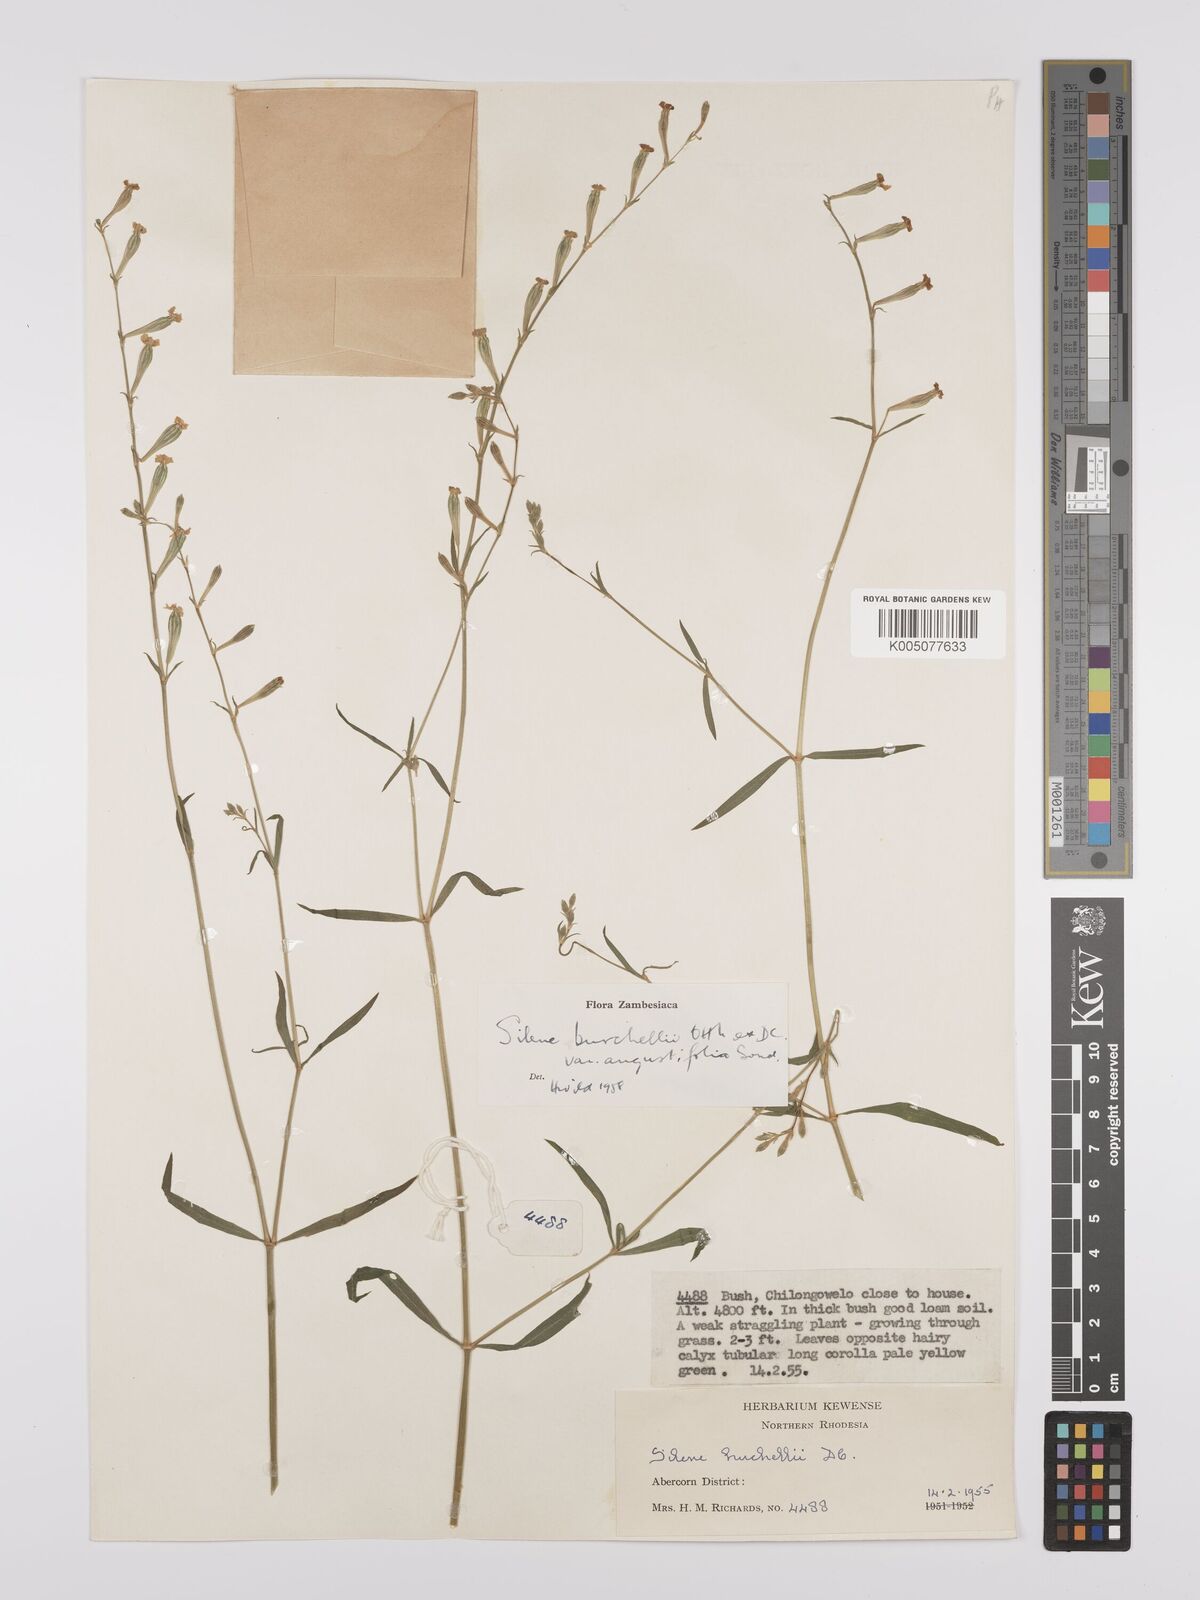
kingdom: Plantae
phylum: Tracheophyta
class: Magnoliopsida
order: Caryophyllales
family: Caryophyllaceae
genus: Silene
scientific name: Silene burchellii
